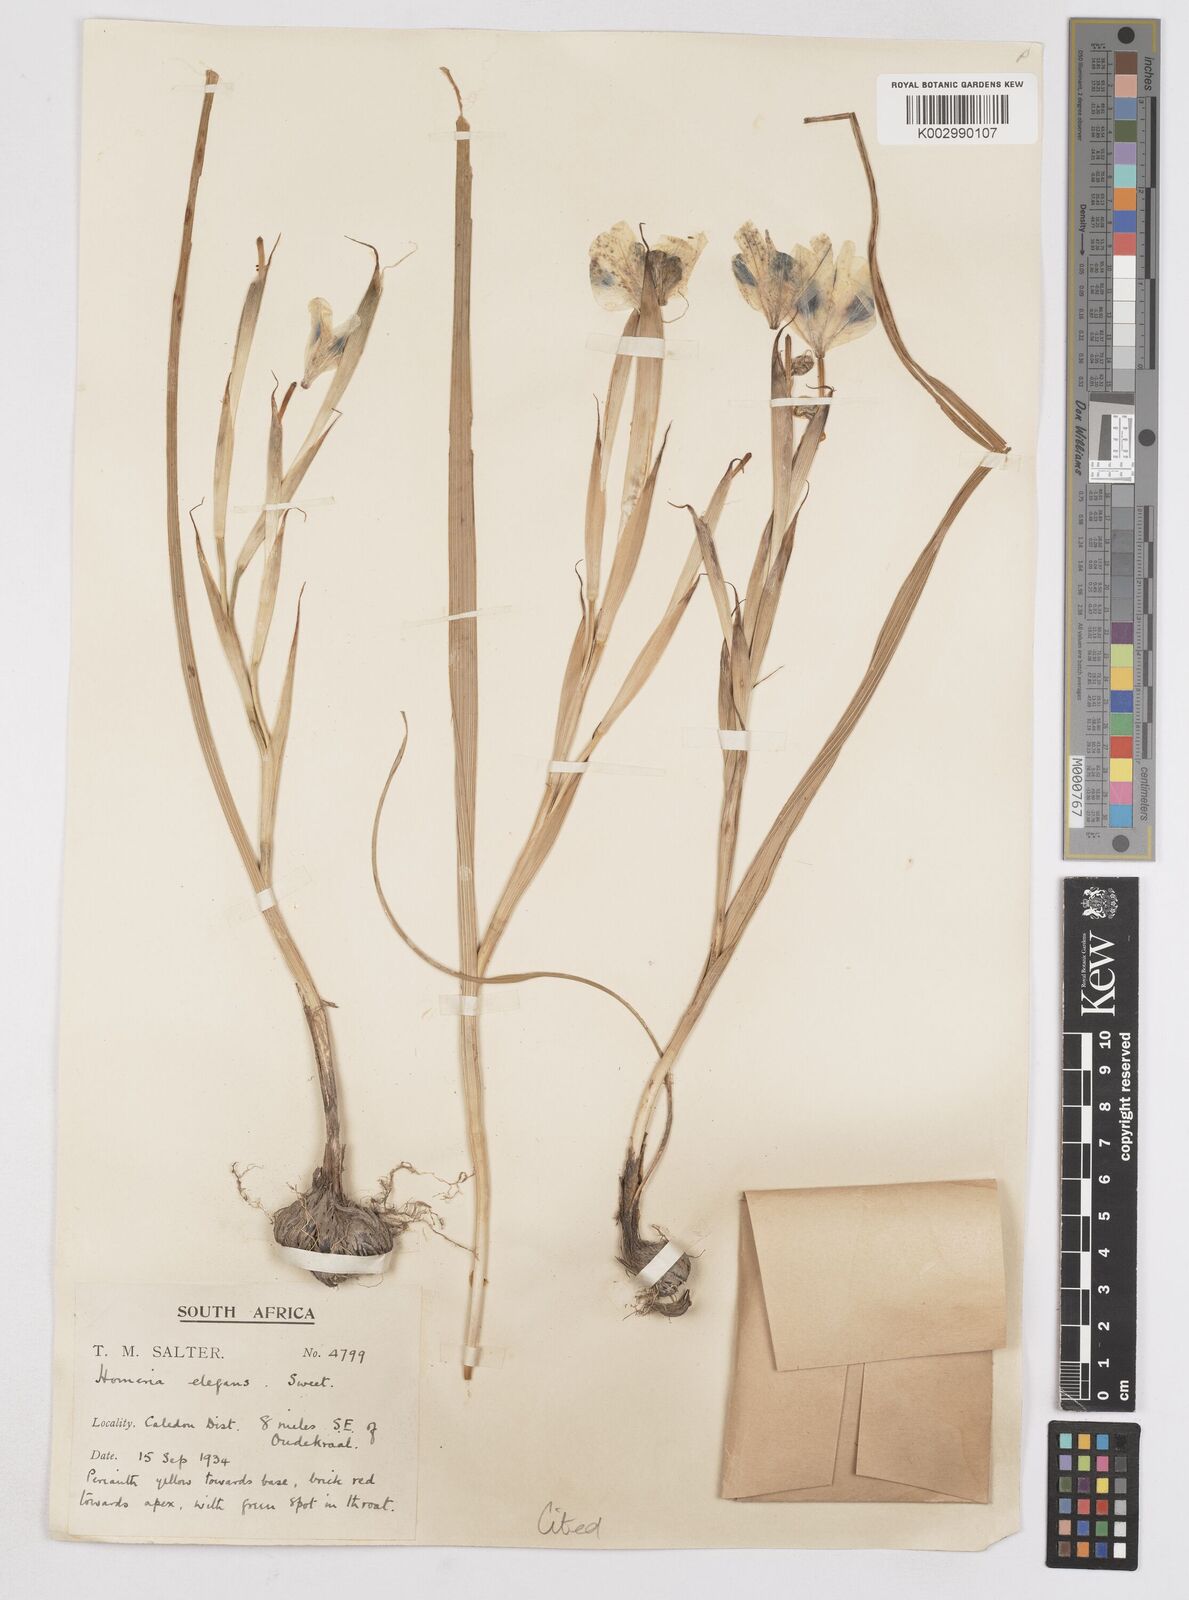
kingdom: Plantae
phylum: Tracheophyta
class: Liliopsida
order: Asparagales
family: Iridaceae
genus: Moraea
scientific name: Moraea elegans
